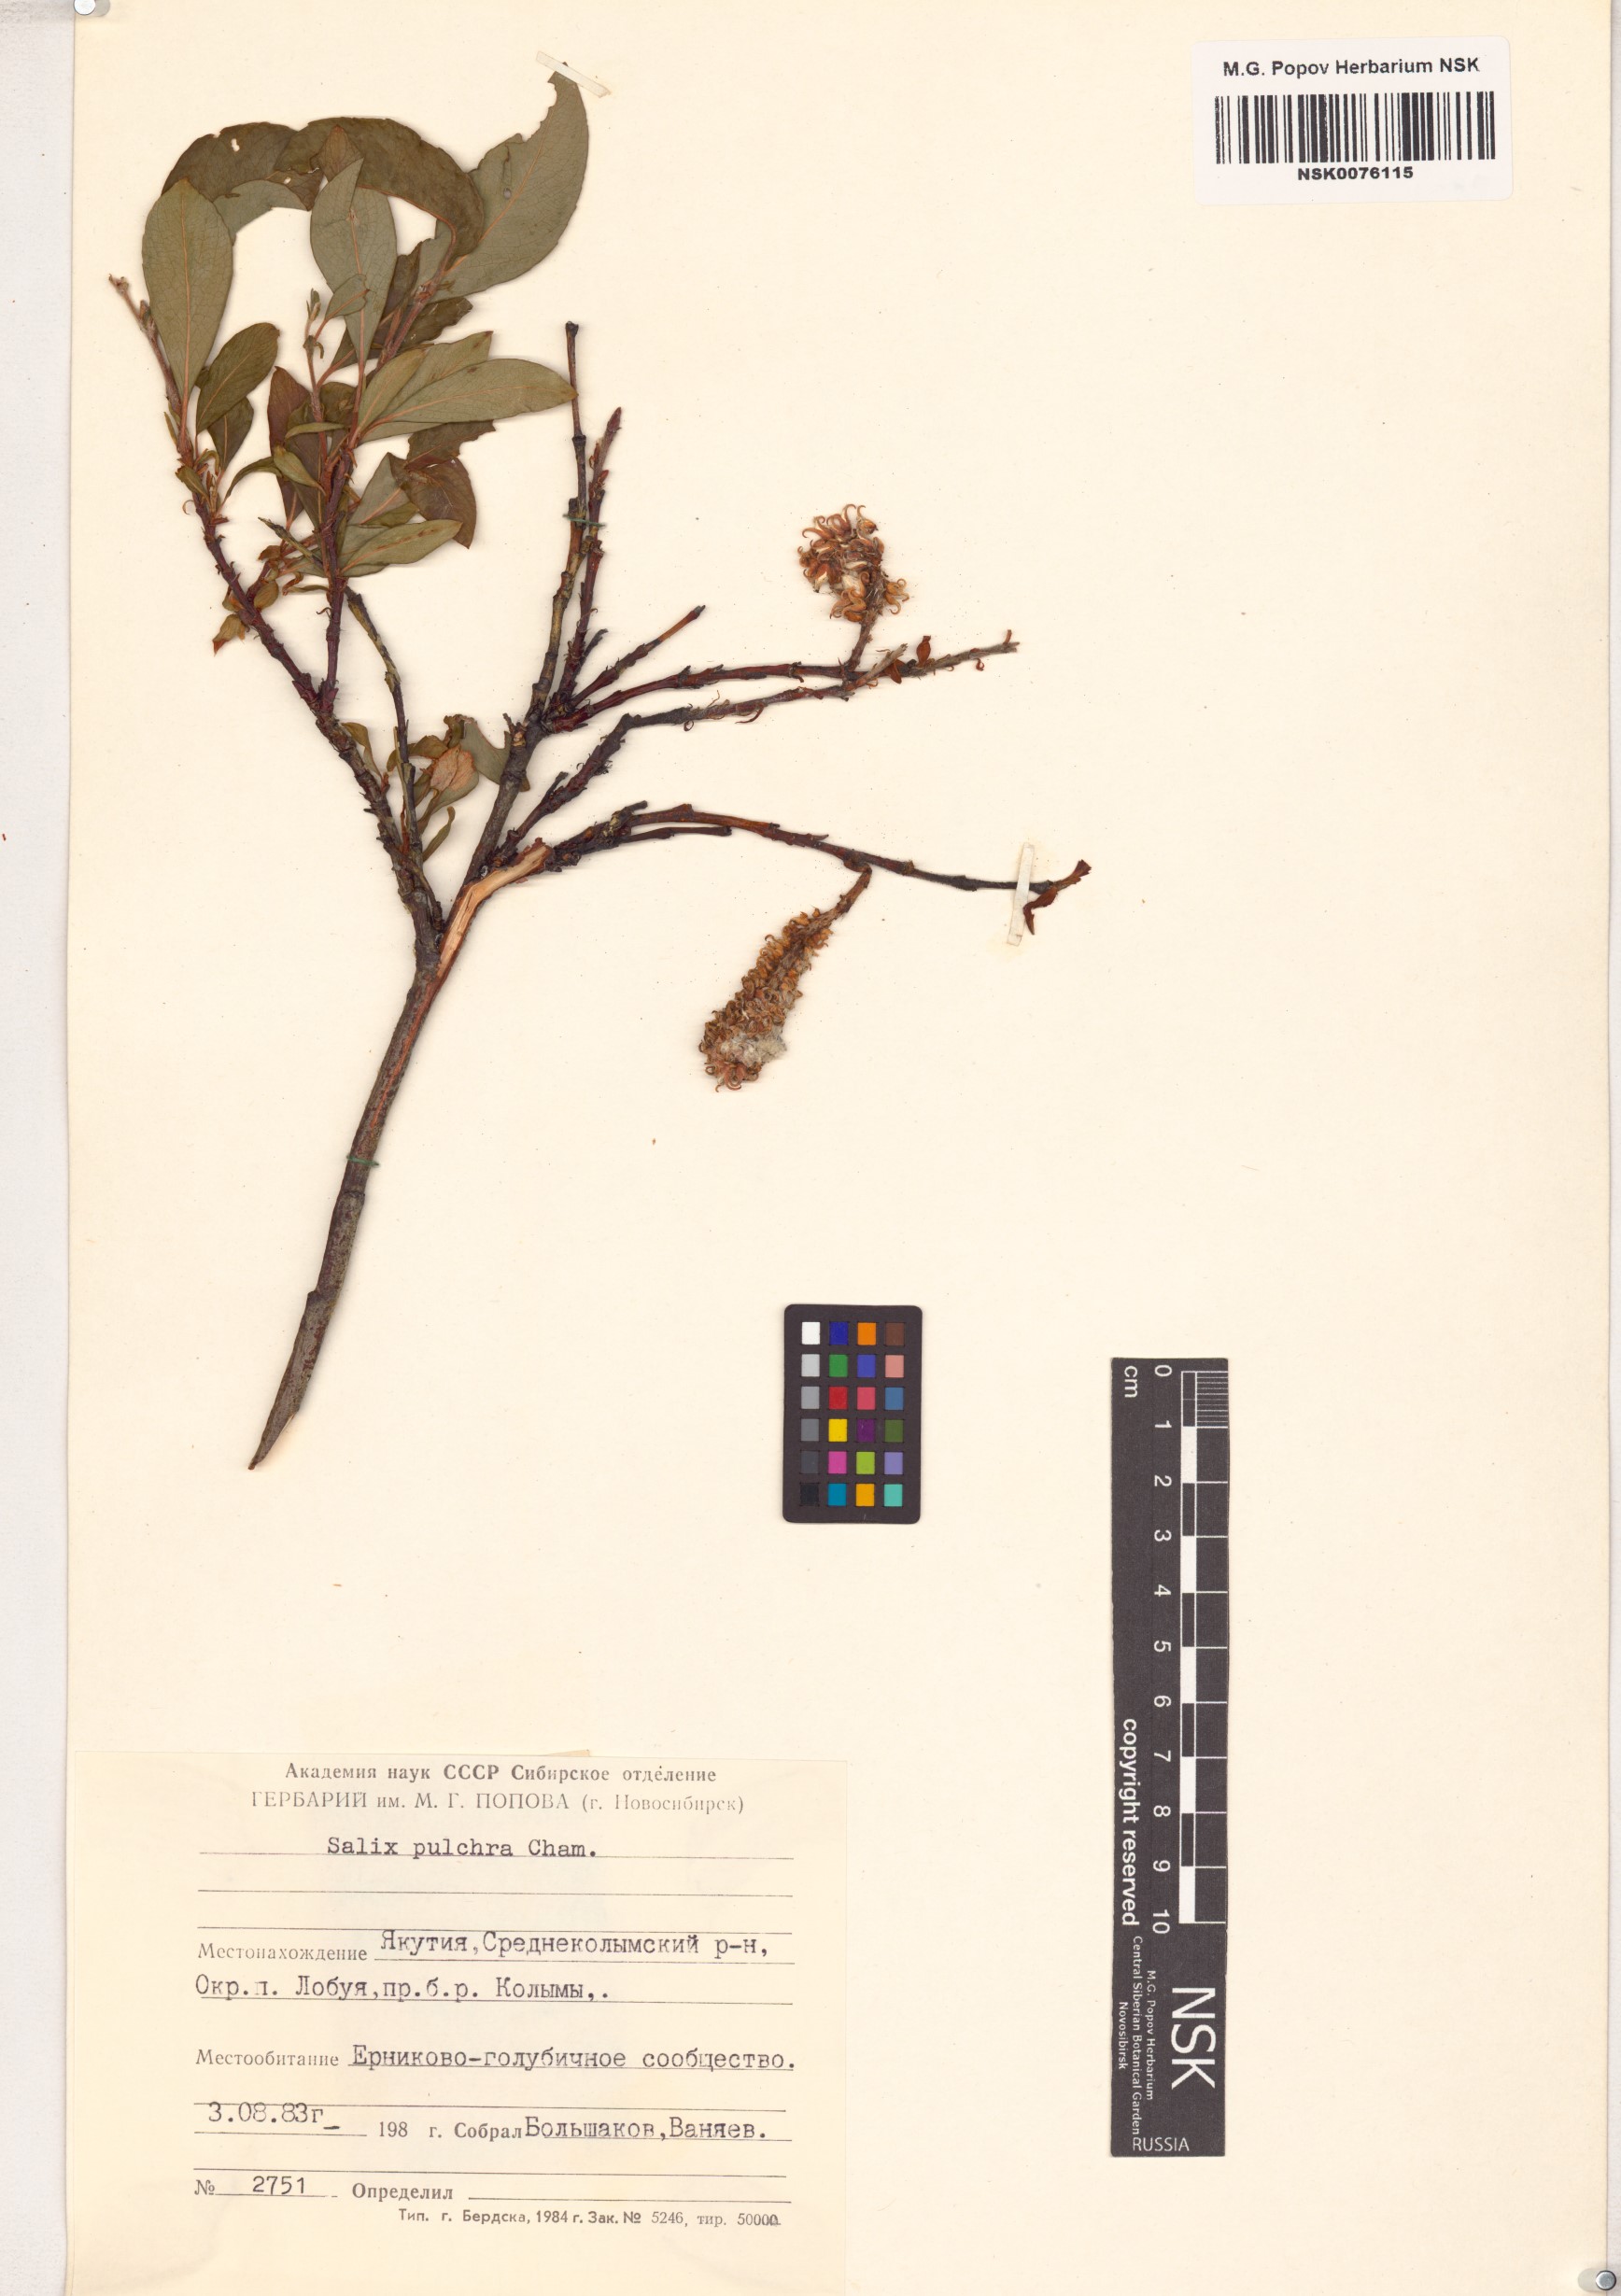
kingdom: Plantae
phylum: Tracheophyta
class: Magnoliopsida
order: Malpighiales
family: Salicaceae
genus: Salix
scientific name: Salix pulchra
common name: Diamond-leaved willow
